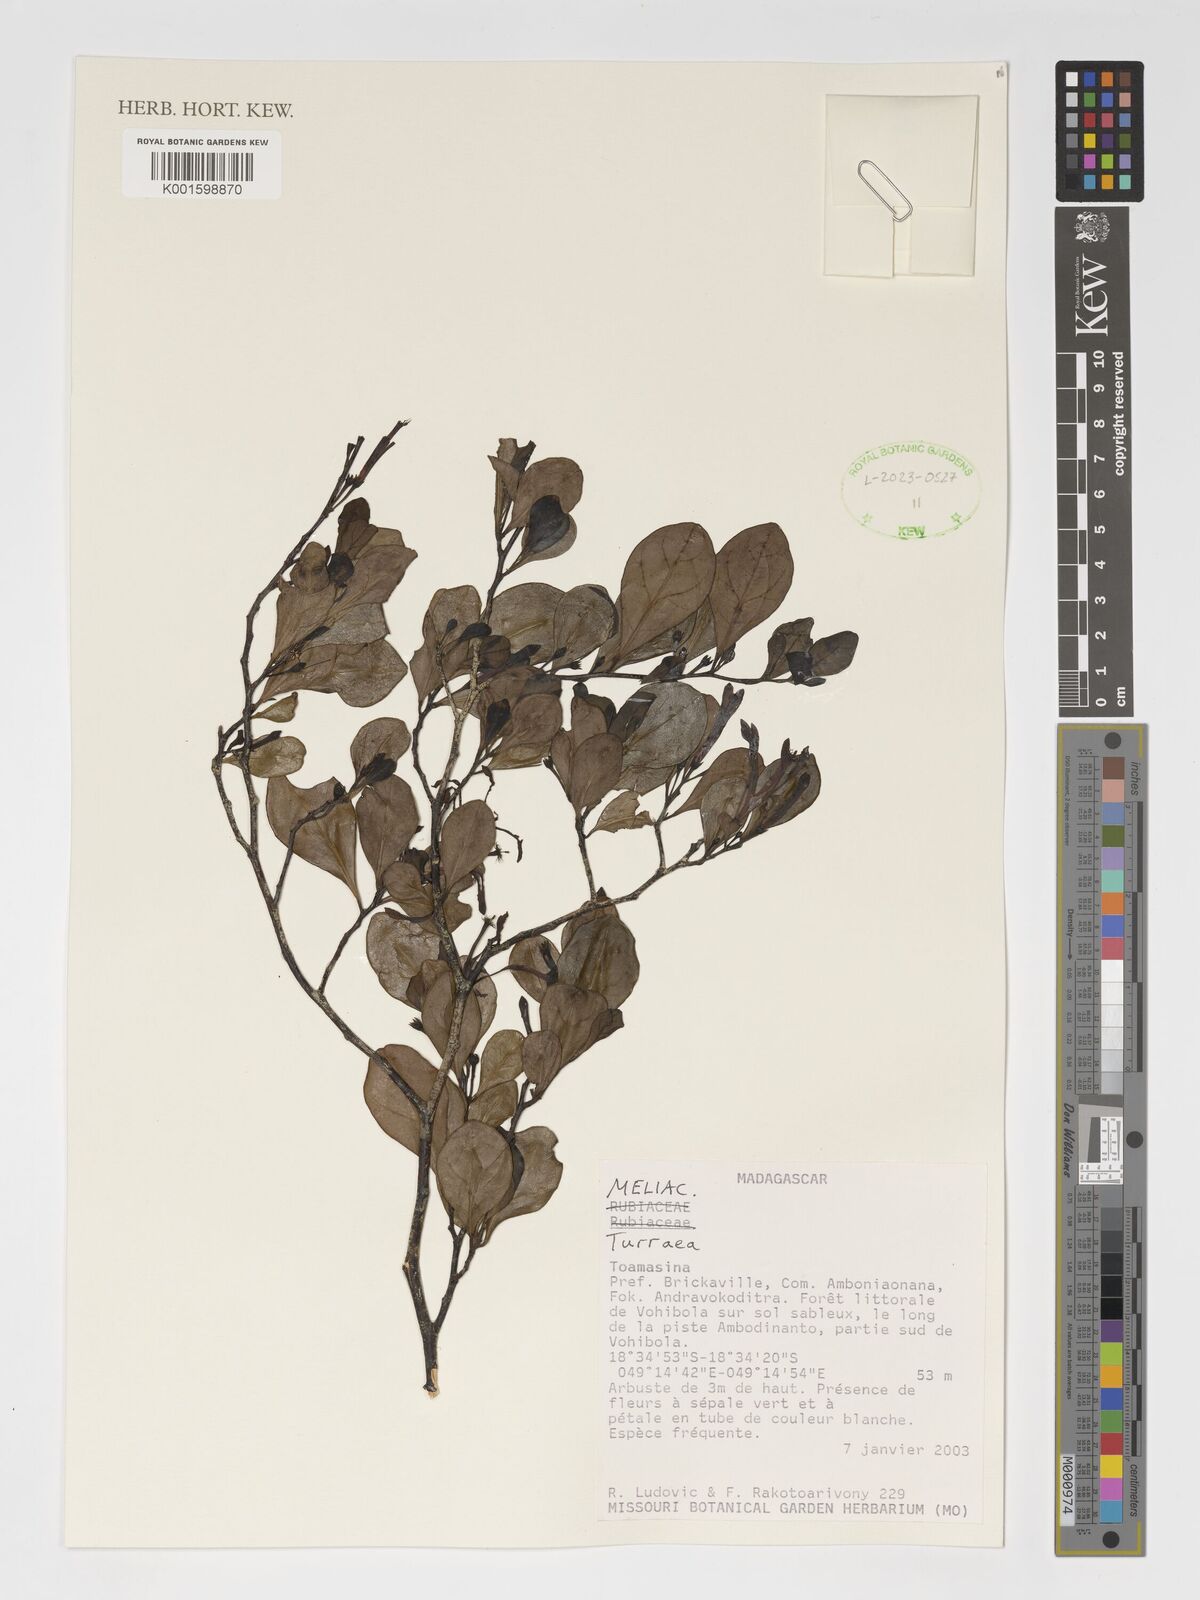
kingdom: Plantae
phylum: Tracheophyta
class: Magnoliopsida
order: Sapindales
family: Meliaceae
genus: Turraea
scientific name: Turraea
